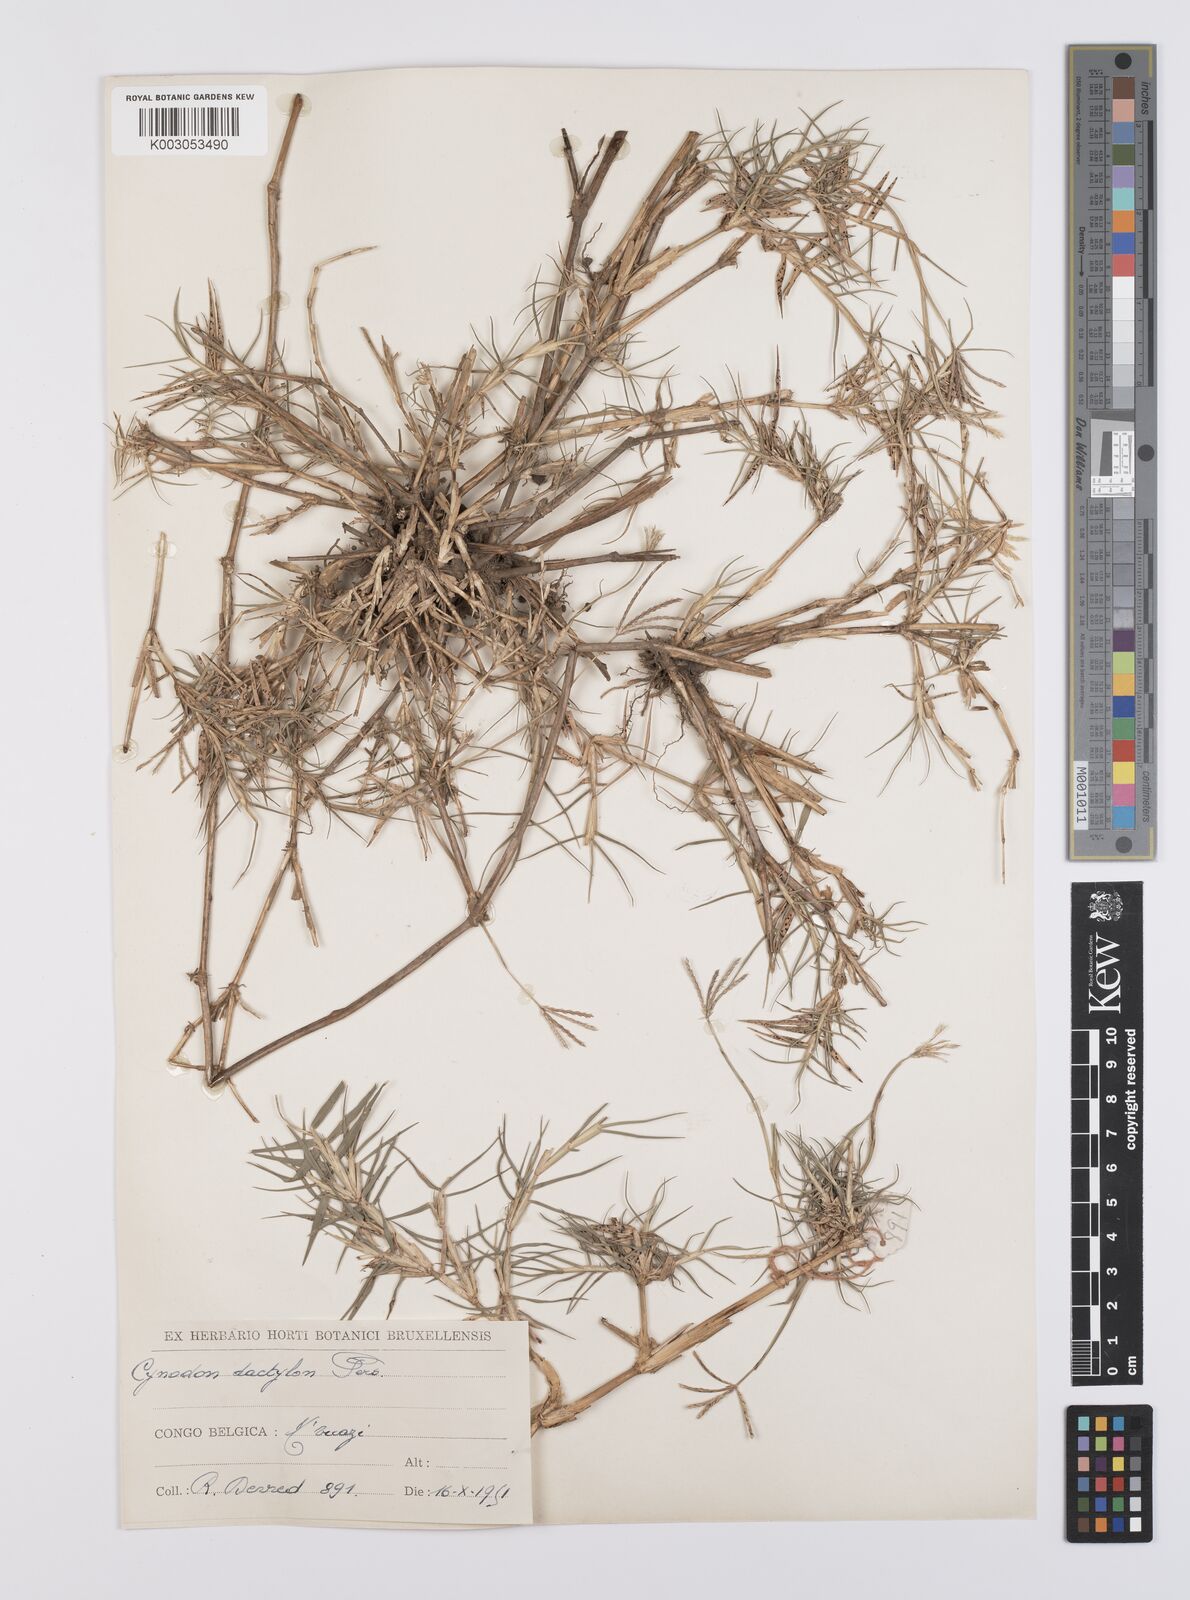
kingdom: Plantae
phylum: Tracheophyta
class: Liliopsida
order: Poales
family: Poaceae
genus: Cynodon
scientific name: Cynodon nlemfuensis
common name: African bermudagrass
